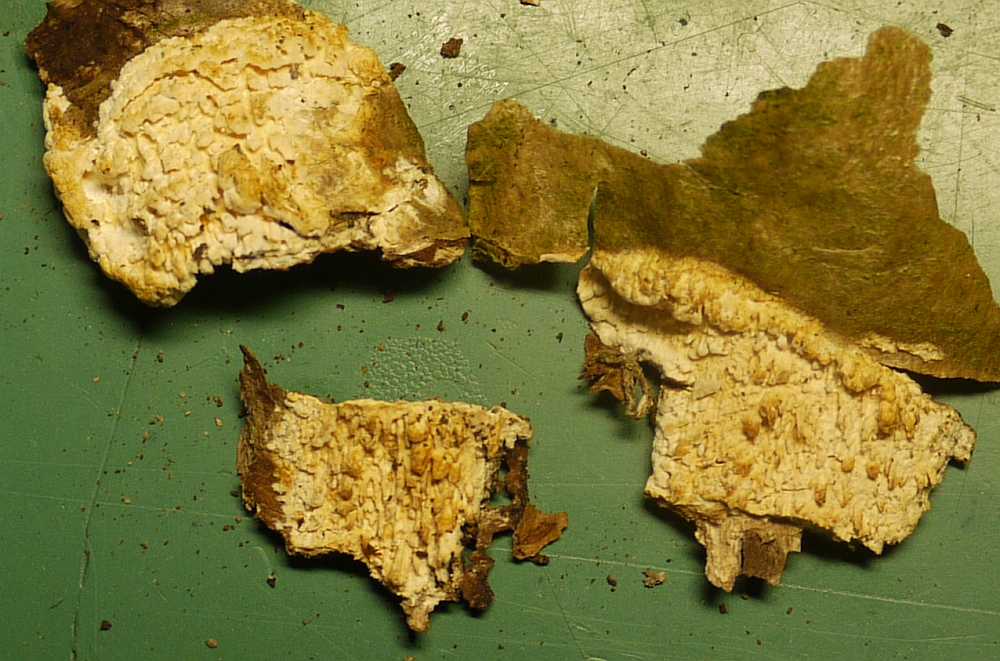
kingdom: Fungi
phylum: Basidiomycota
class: Agaricomycetes
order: Hymenochaetales
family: Schizoporaceae
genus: Xylodon
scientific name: Xylodon radula
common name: grovtandet kalkskind
